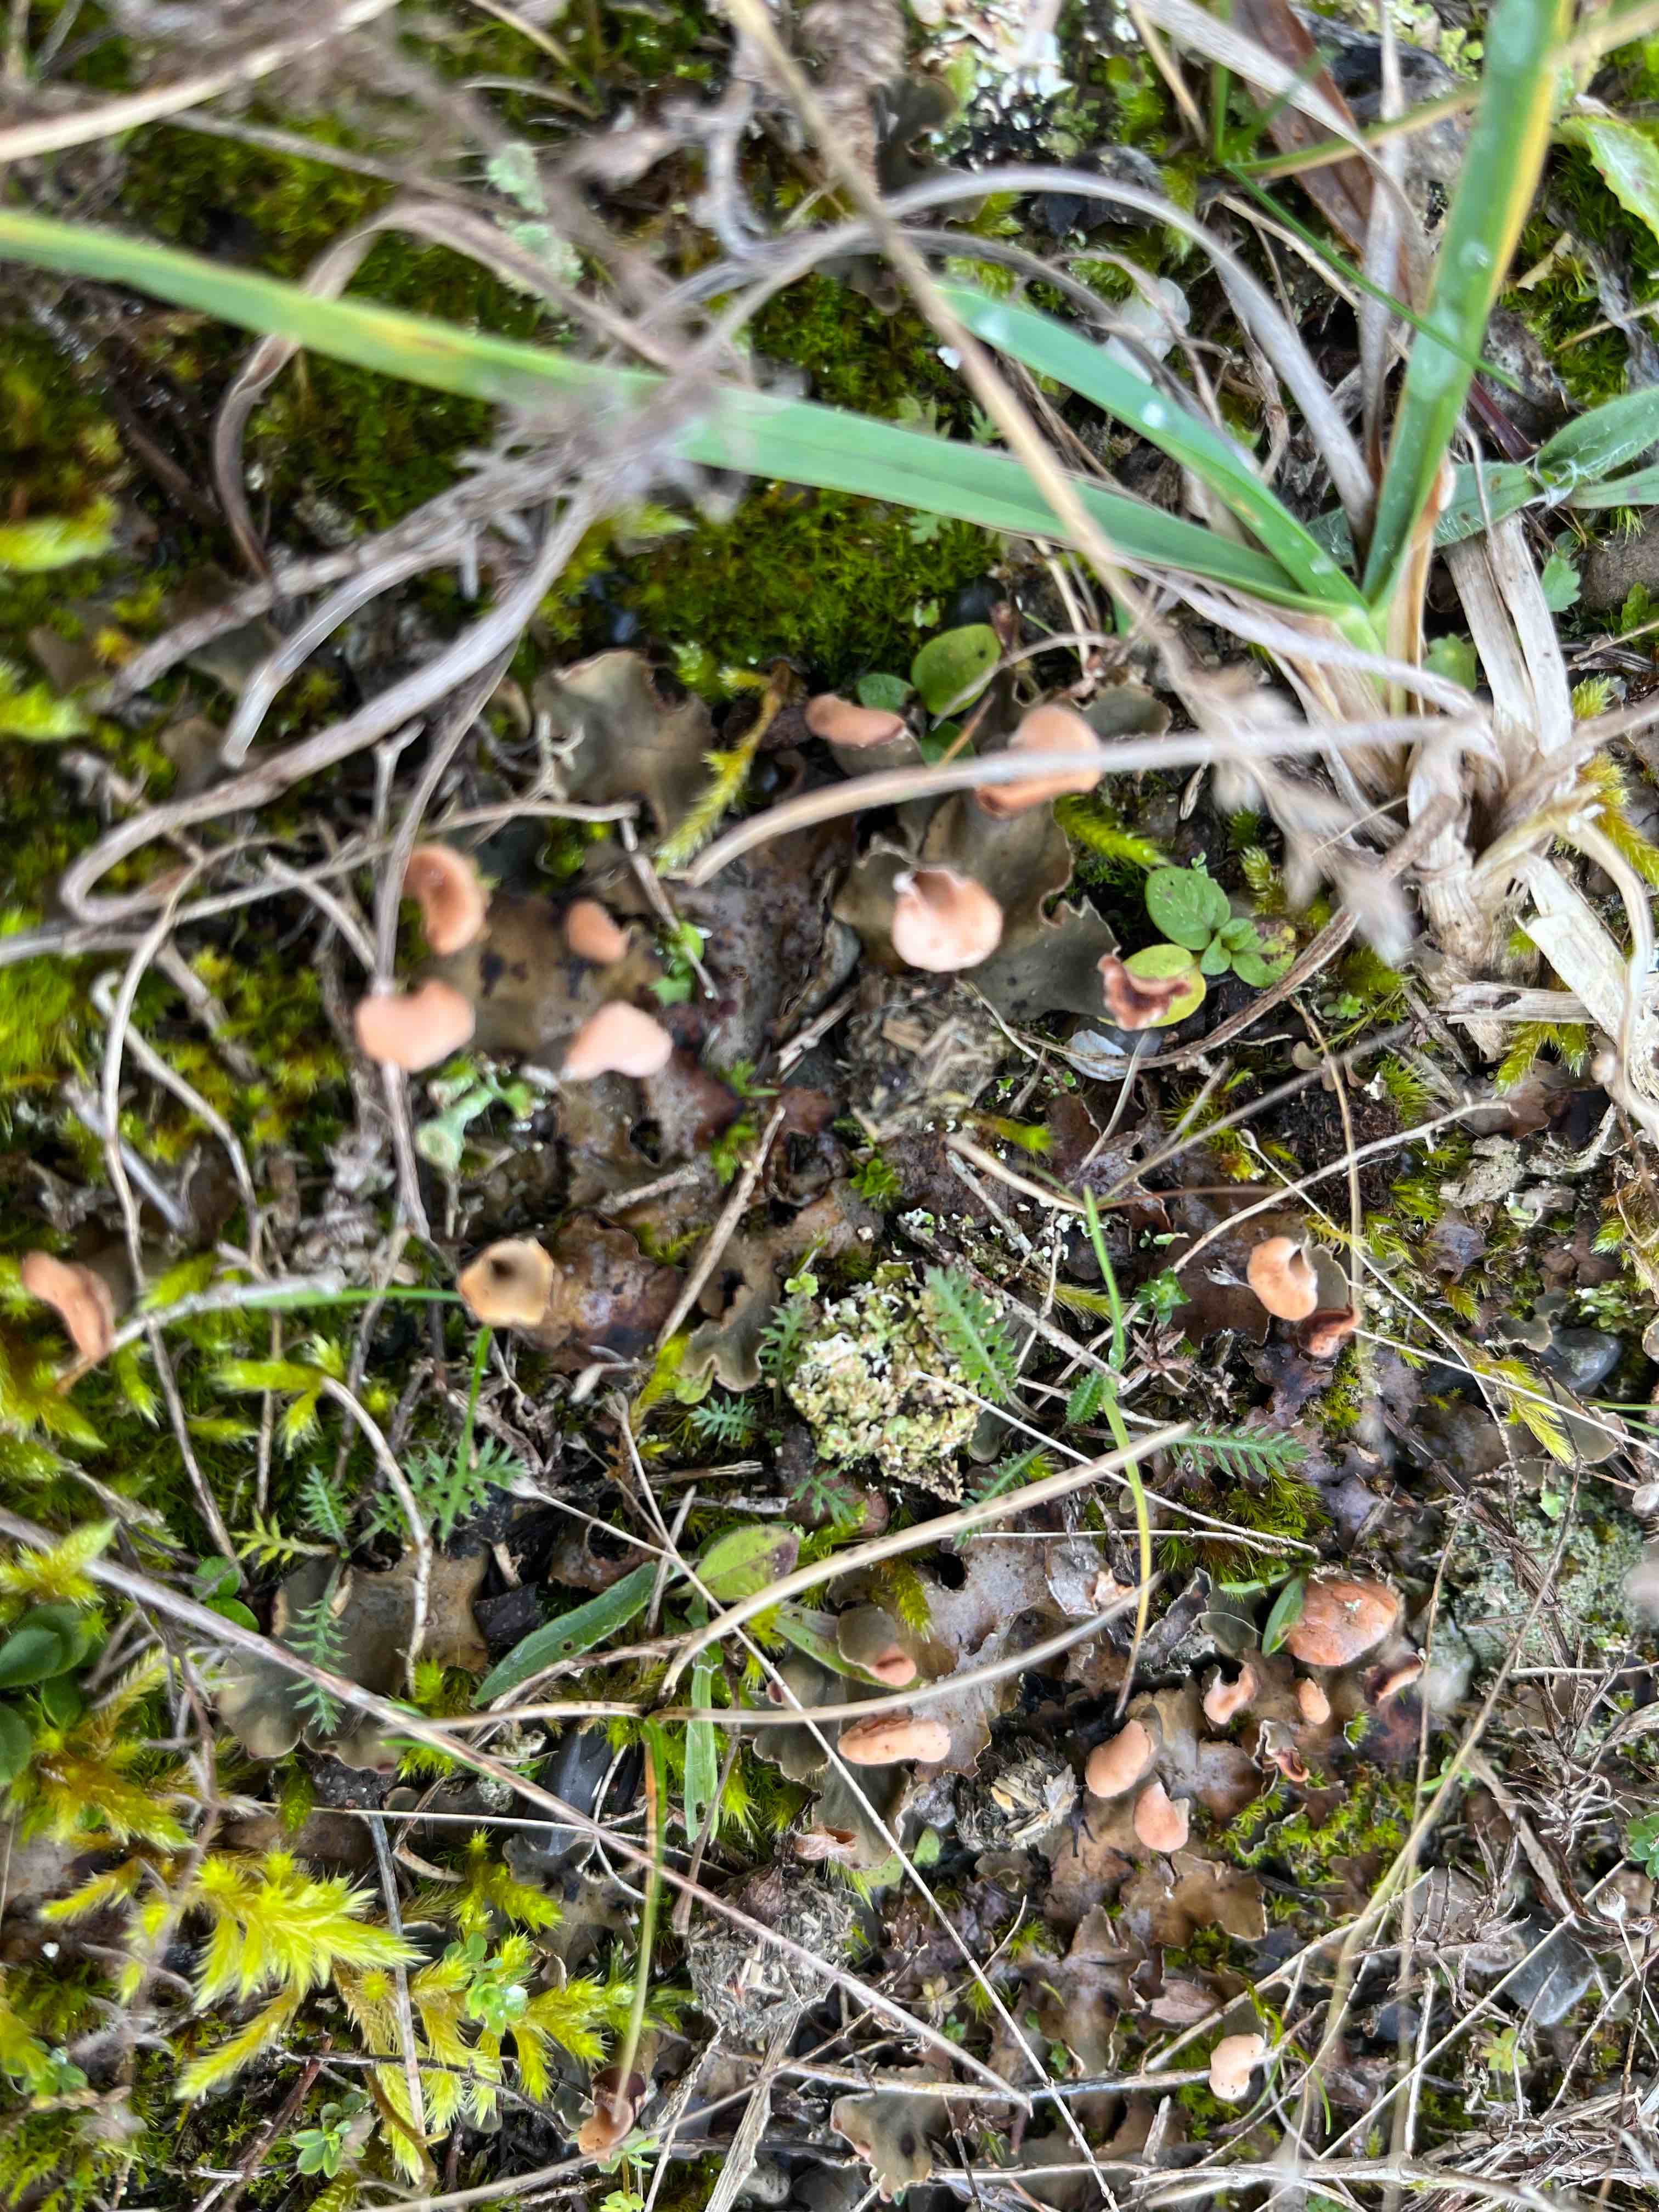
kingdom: Fungi
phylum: Ascomycota
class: Lecanoromycetes
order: Peltigerales
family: Peltigeraceae
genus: Peltigera
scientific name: Peltigera didactyla
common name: liden skjoldlav
